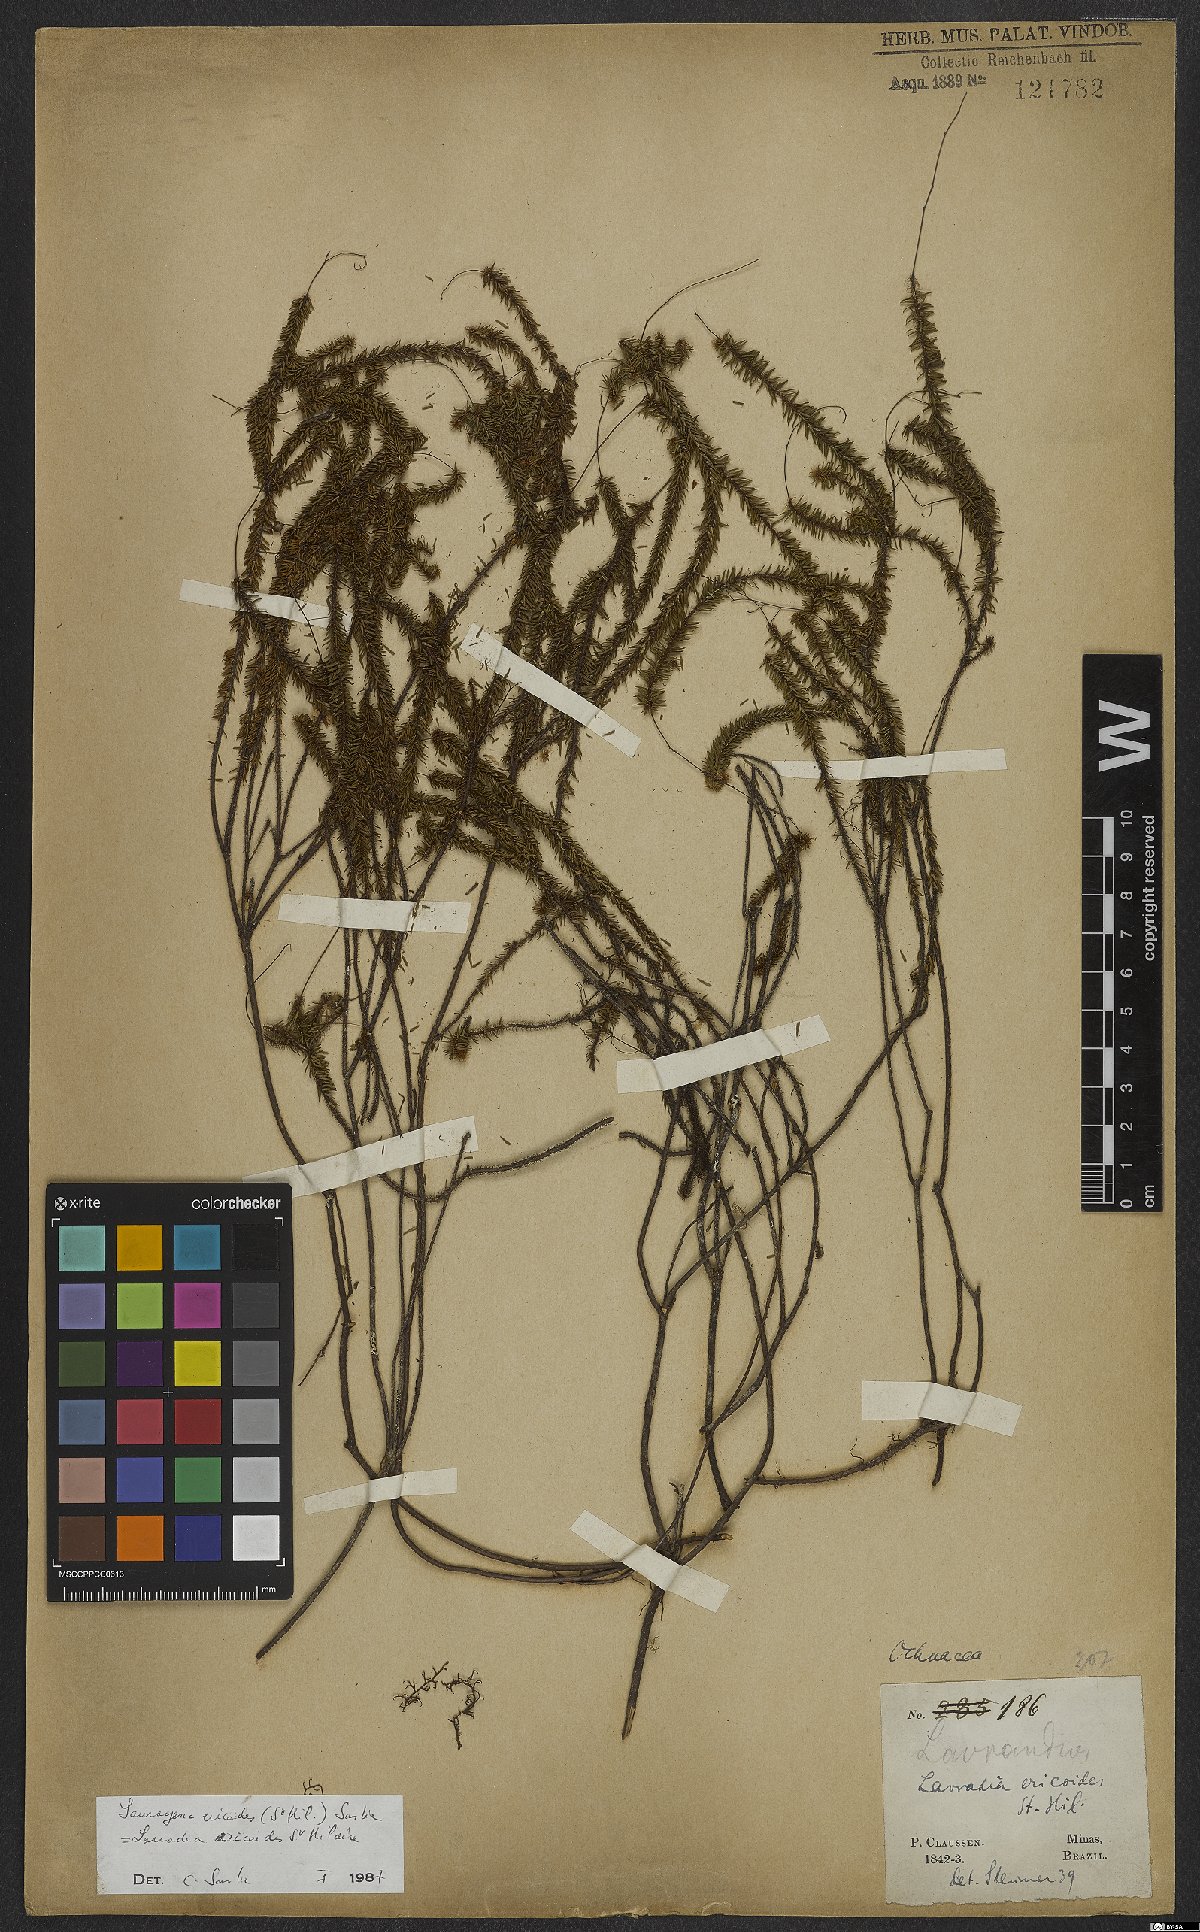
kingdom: Plantae
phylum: Tracheophyta
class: Magnoliopsida
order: Malpighiales
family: Ochnaceae
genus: Sauvagesia
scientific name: Sauvagesia ericoides
